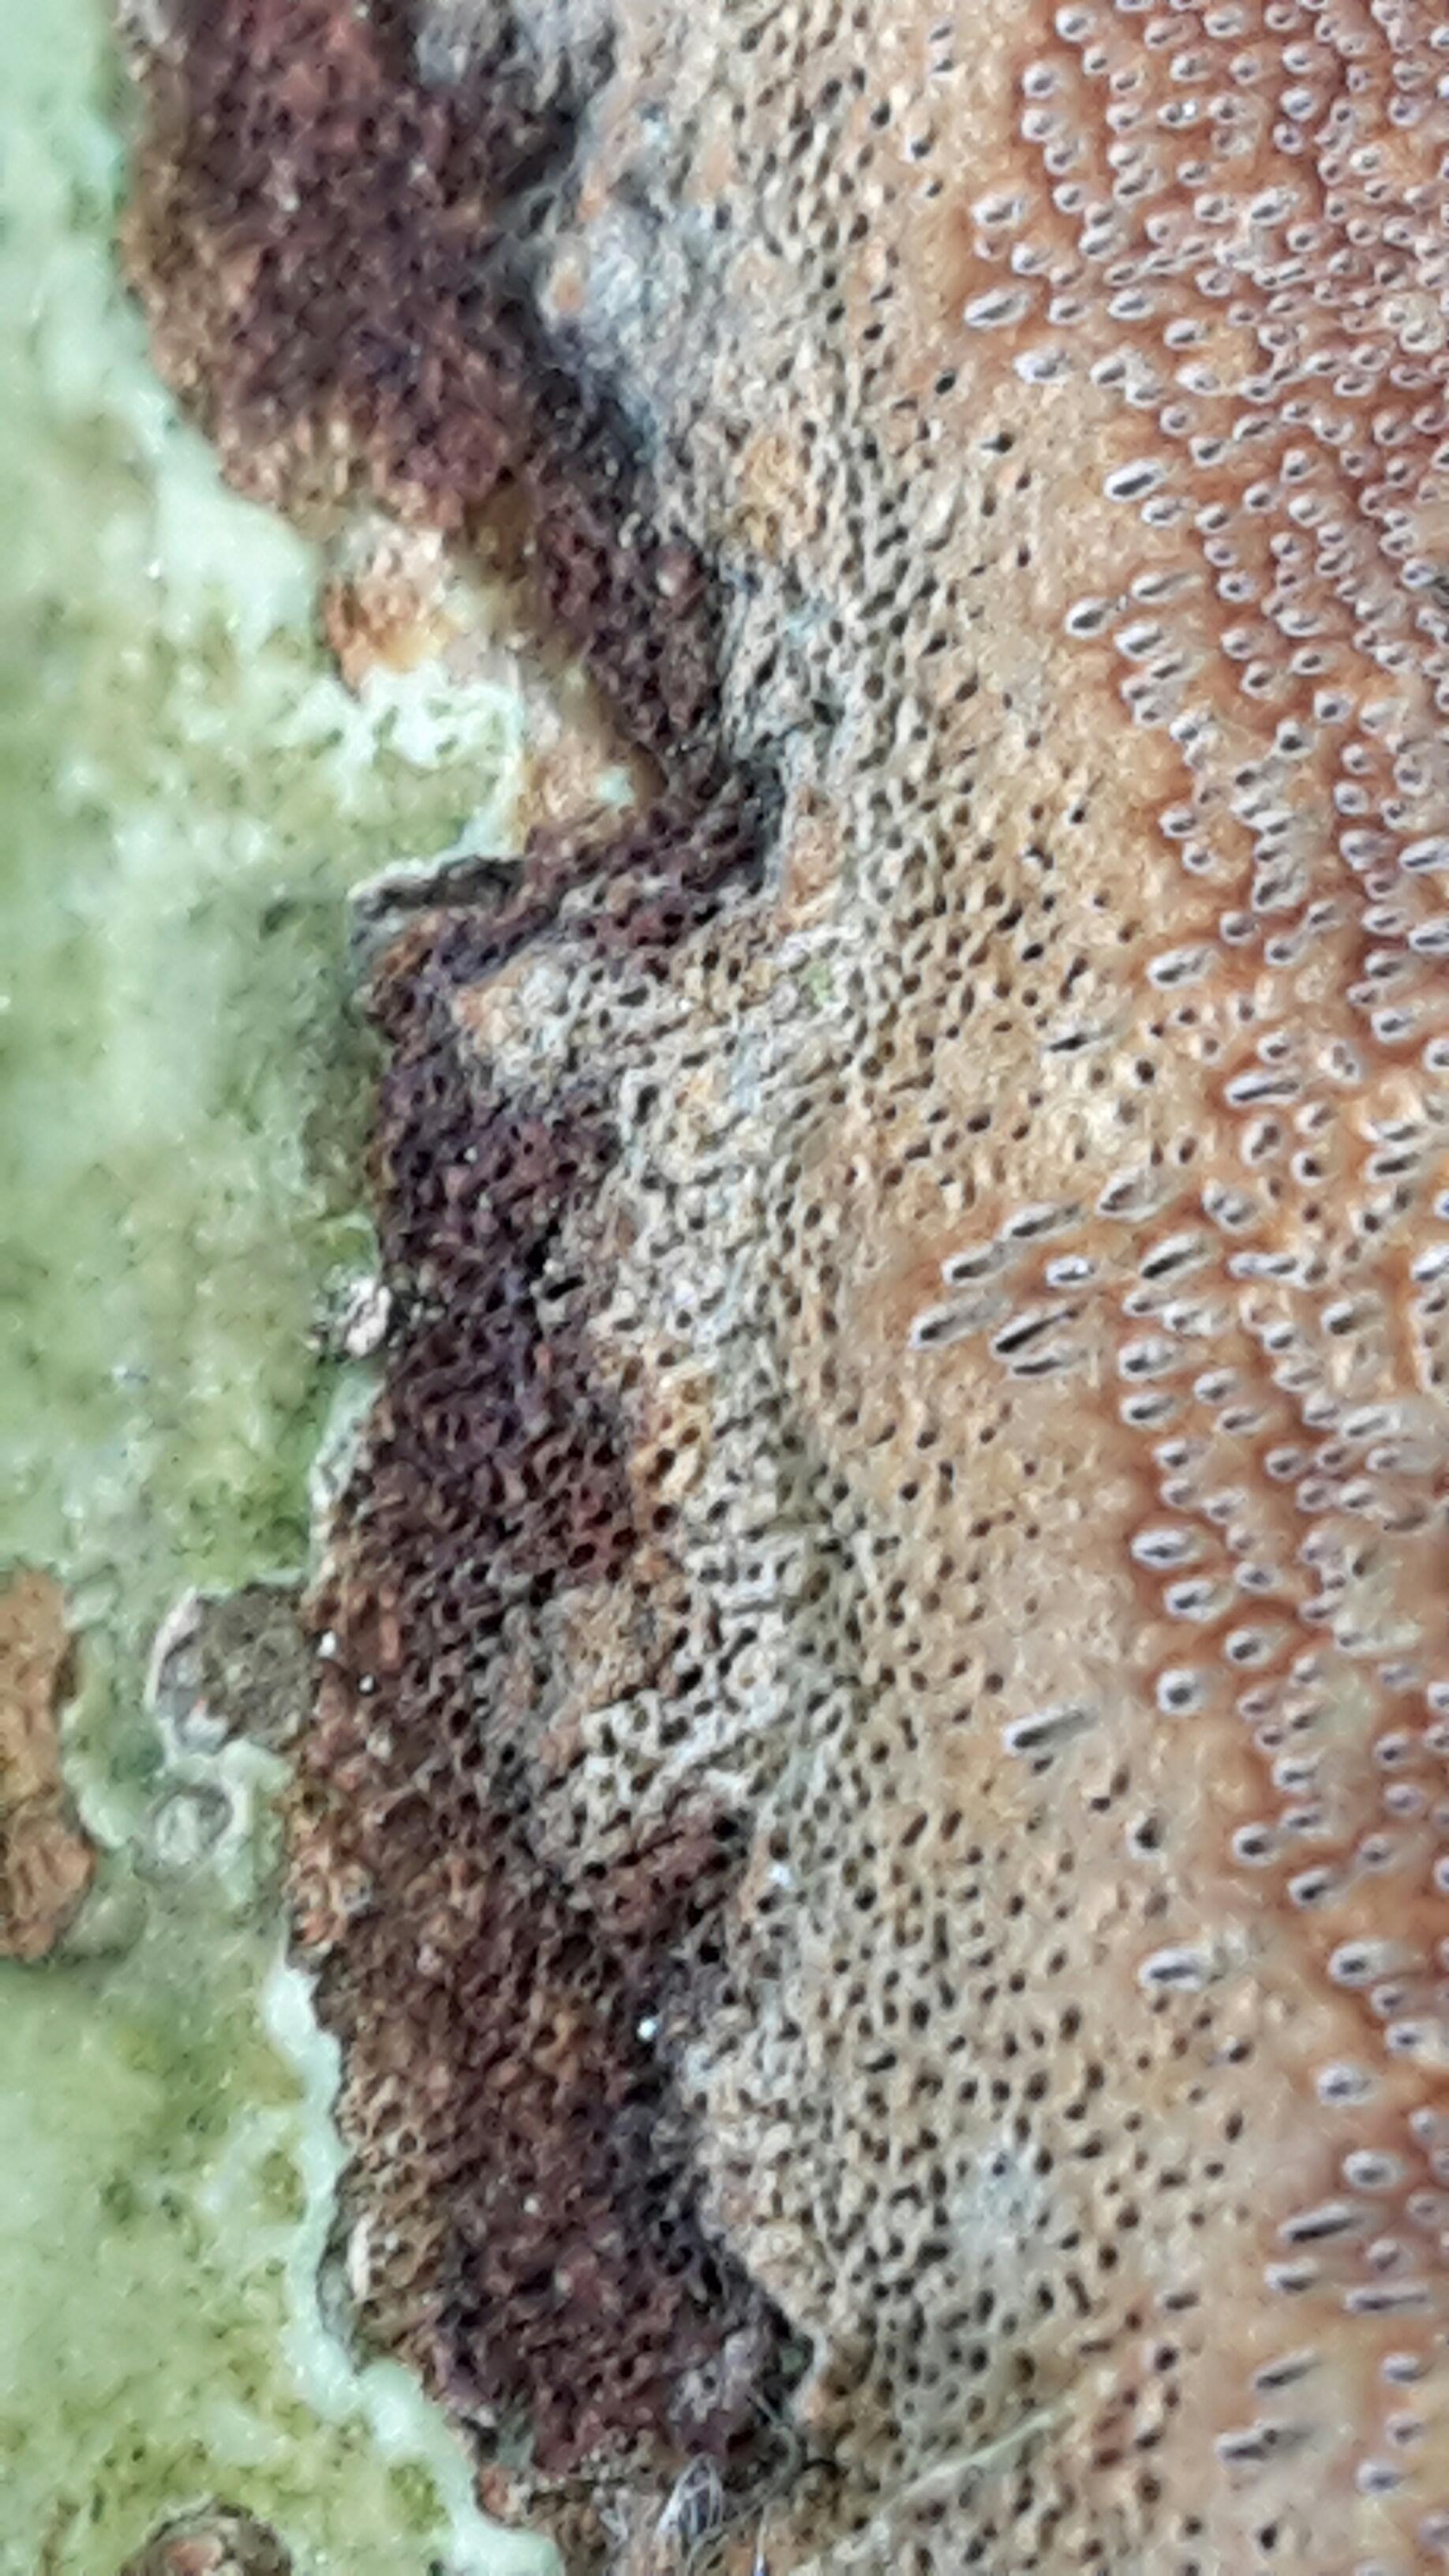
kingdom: Fungi
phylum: Basidiomycota
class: Agaricomycetes
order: Hymenochaetales
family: Hymenochaetaceae
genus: Fuscoporia
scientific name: Fuscoporia
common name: Ildporesvamp
